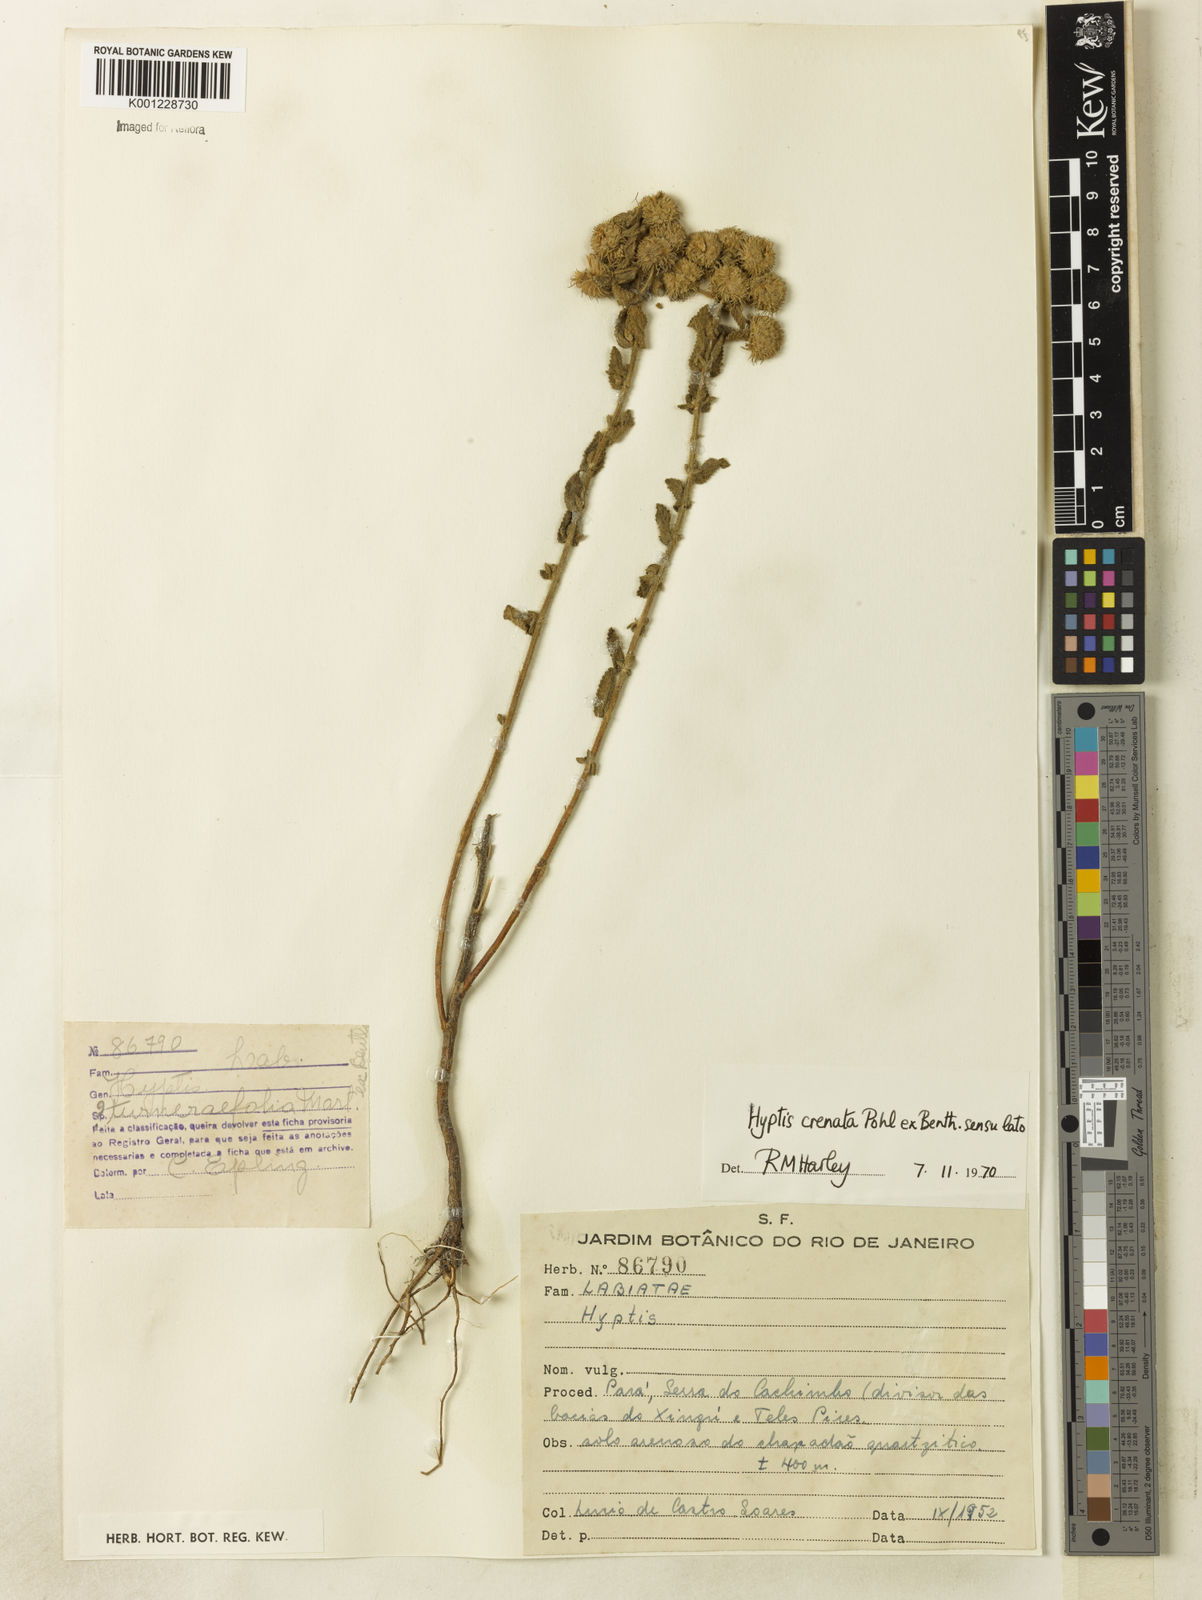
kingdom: Plantae
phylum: Tracheophyta
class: Magnoliopsida
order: Lamiales
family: Lamiaceae
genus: Hyptis
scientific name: Hyptis crenata
